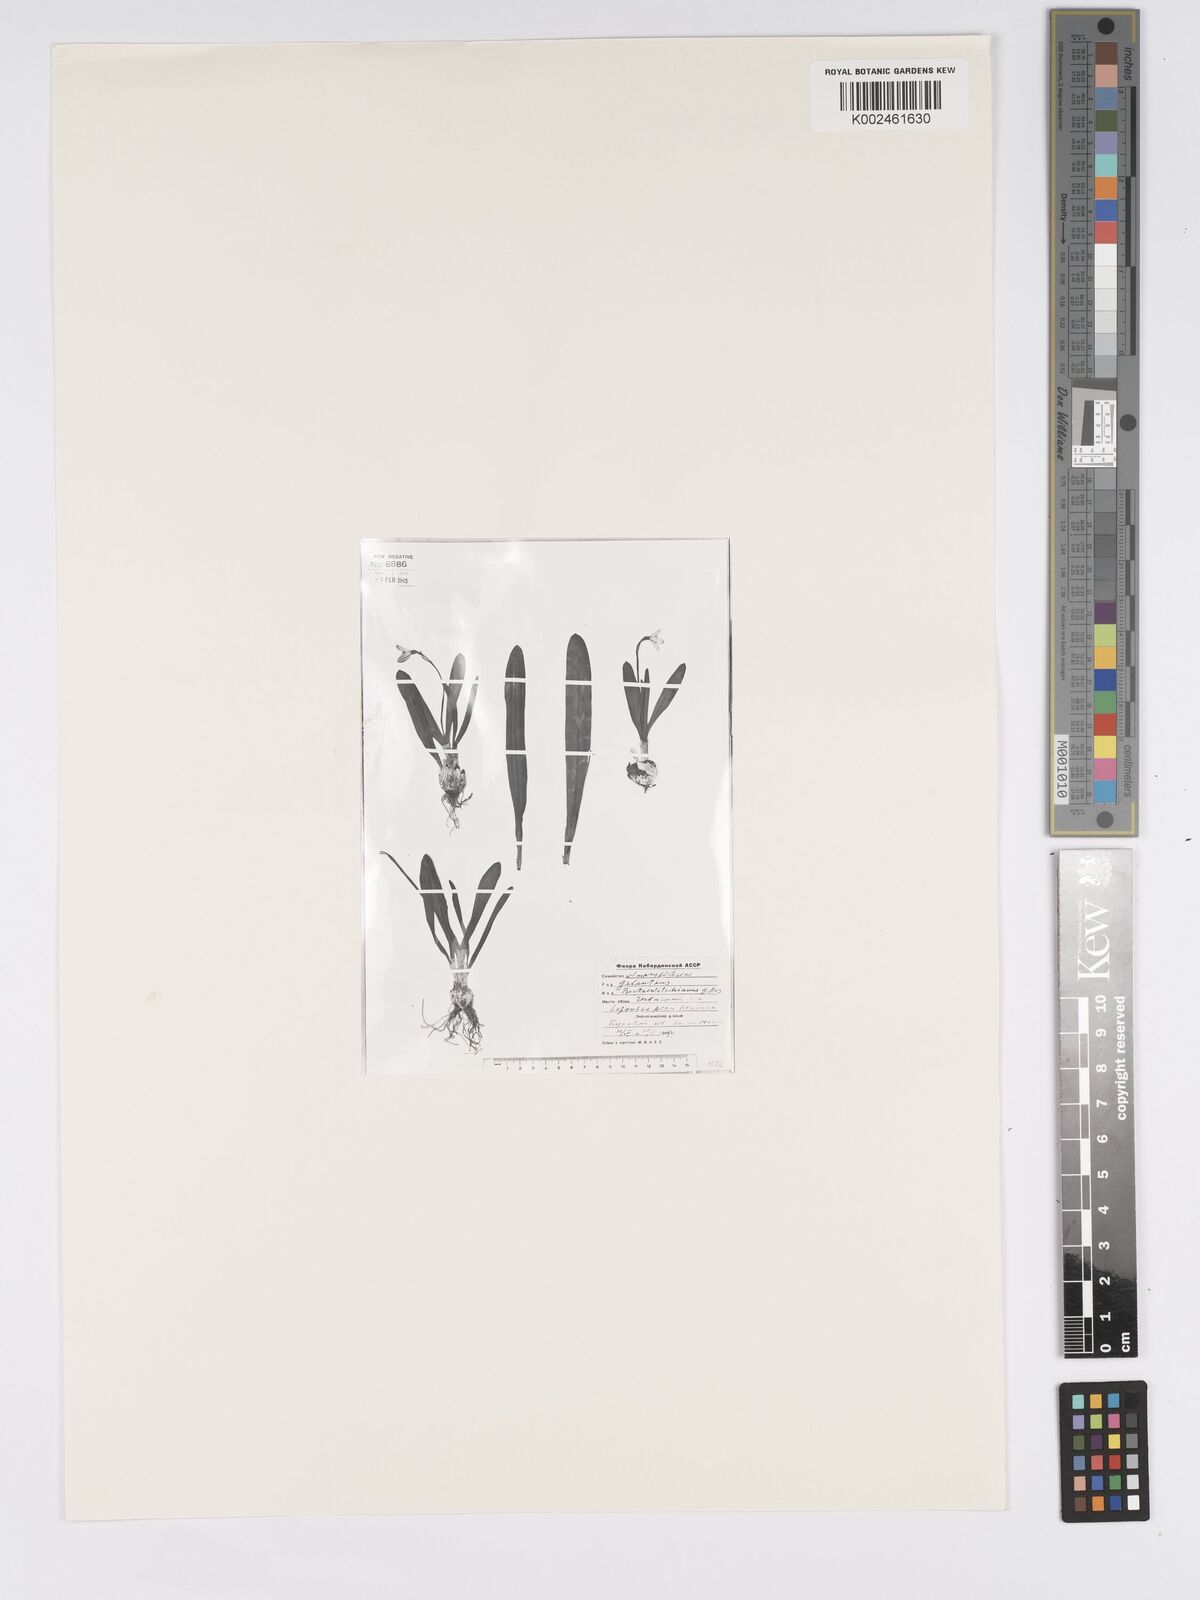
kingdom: Plantae
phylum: Tracheophyta
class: Liliopsida
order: Asparagales
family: Amaryllidaceae
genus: Galanthus
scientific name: Galanthus alpinus
